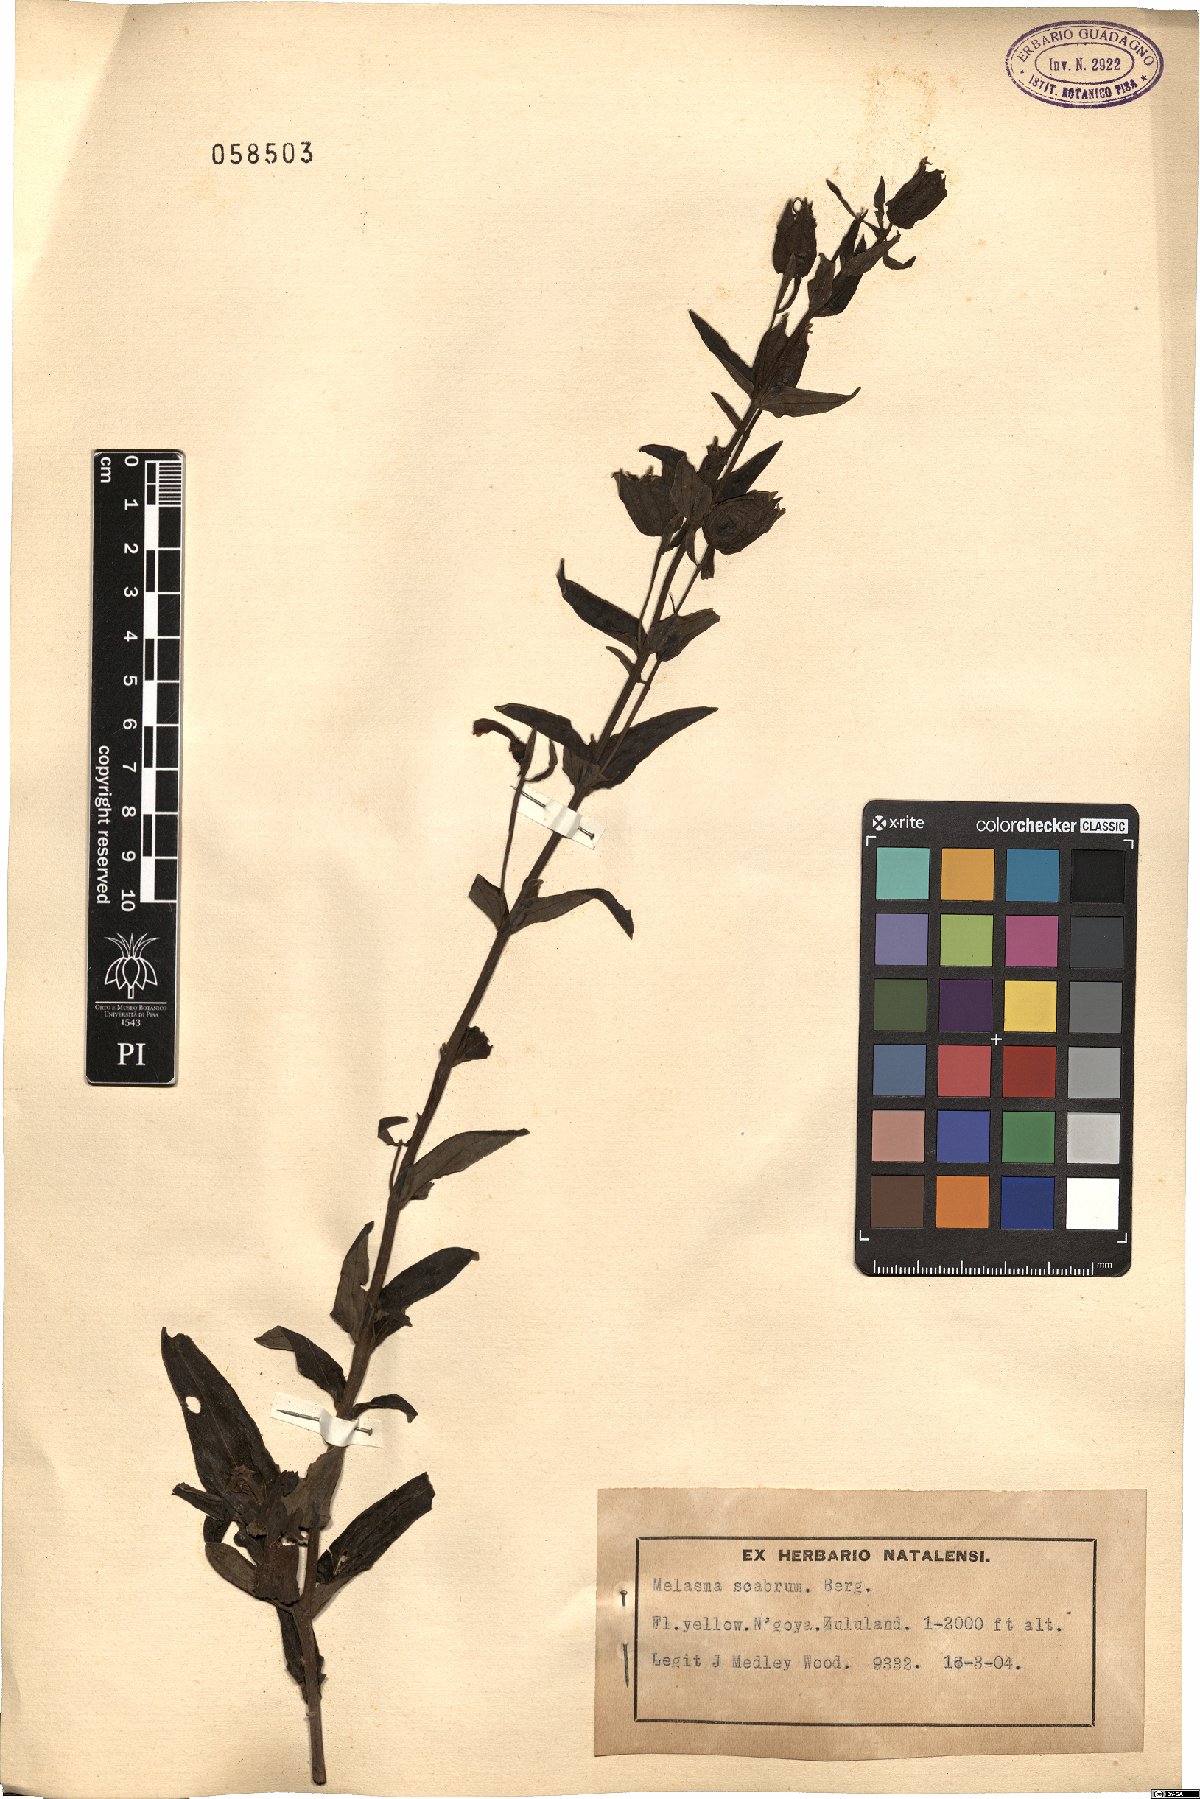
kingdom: Plantae
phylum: Tracheophyta
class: Magnoliopsida
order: Lamiales
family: Orobanchaceae
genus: Melasma
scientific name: Melasma scabrum
